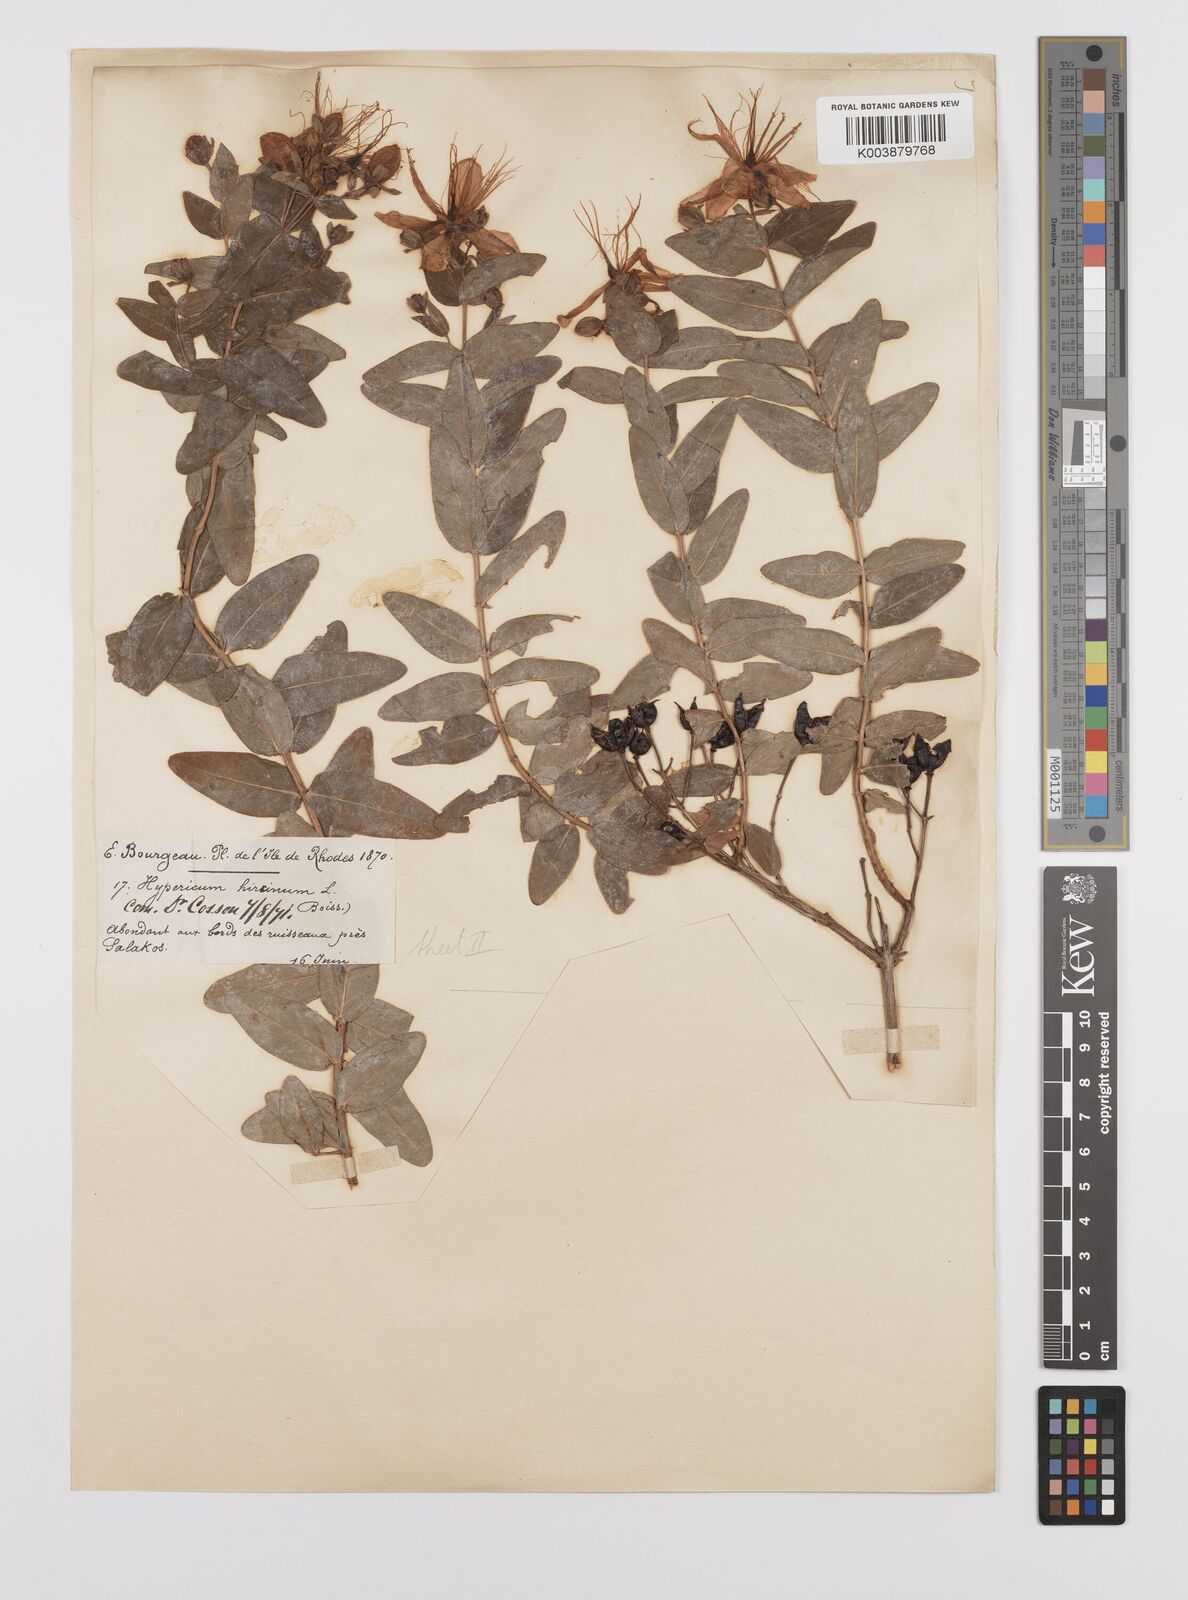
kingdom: Plantae
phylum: Tracheophyta
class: Magnoliopsida
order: Malpighiales
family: Hypericaceae
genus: Hypericum
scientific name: Hypericum hircinum
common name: Stinking tutsan
